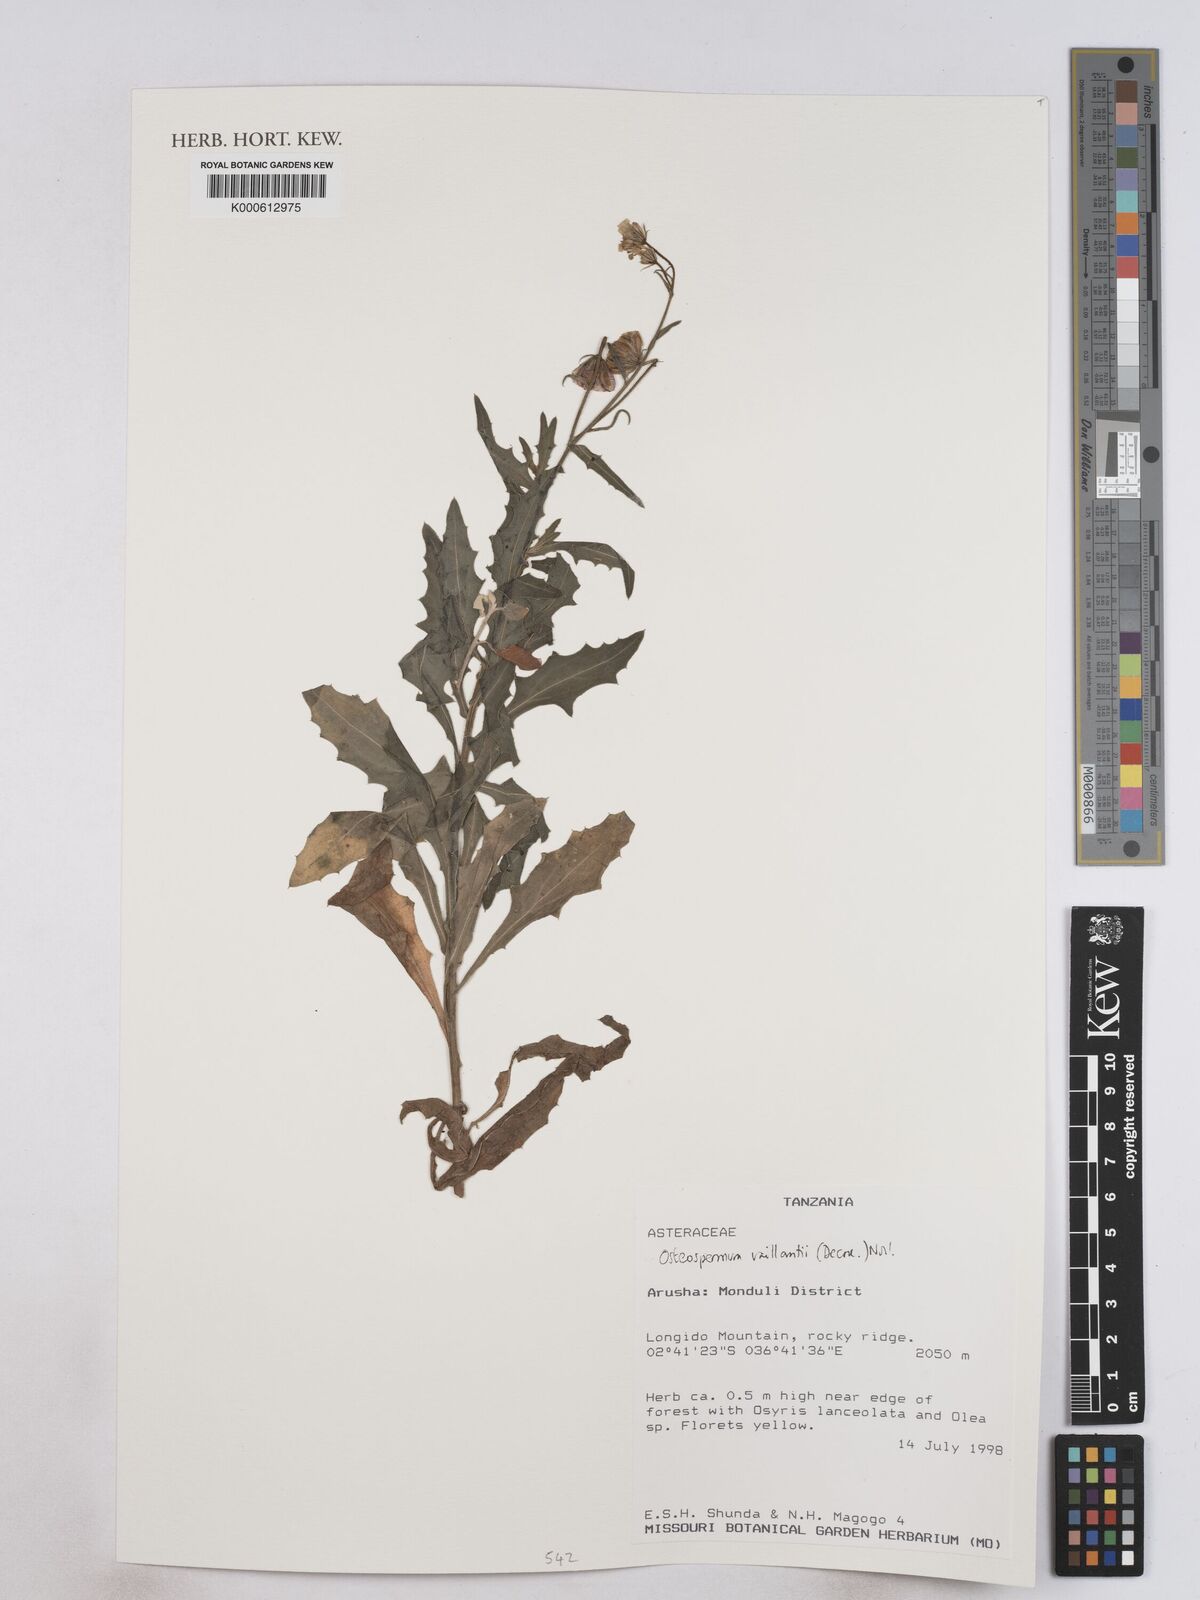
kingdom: Plantae
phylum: Tracheophyta
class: Magnoliopsida
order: Asterales
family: Asteraceae
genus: Osteospermum
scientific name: Osteospermum vaillantii
